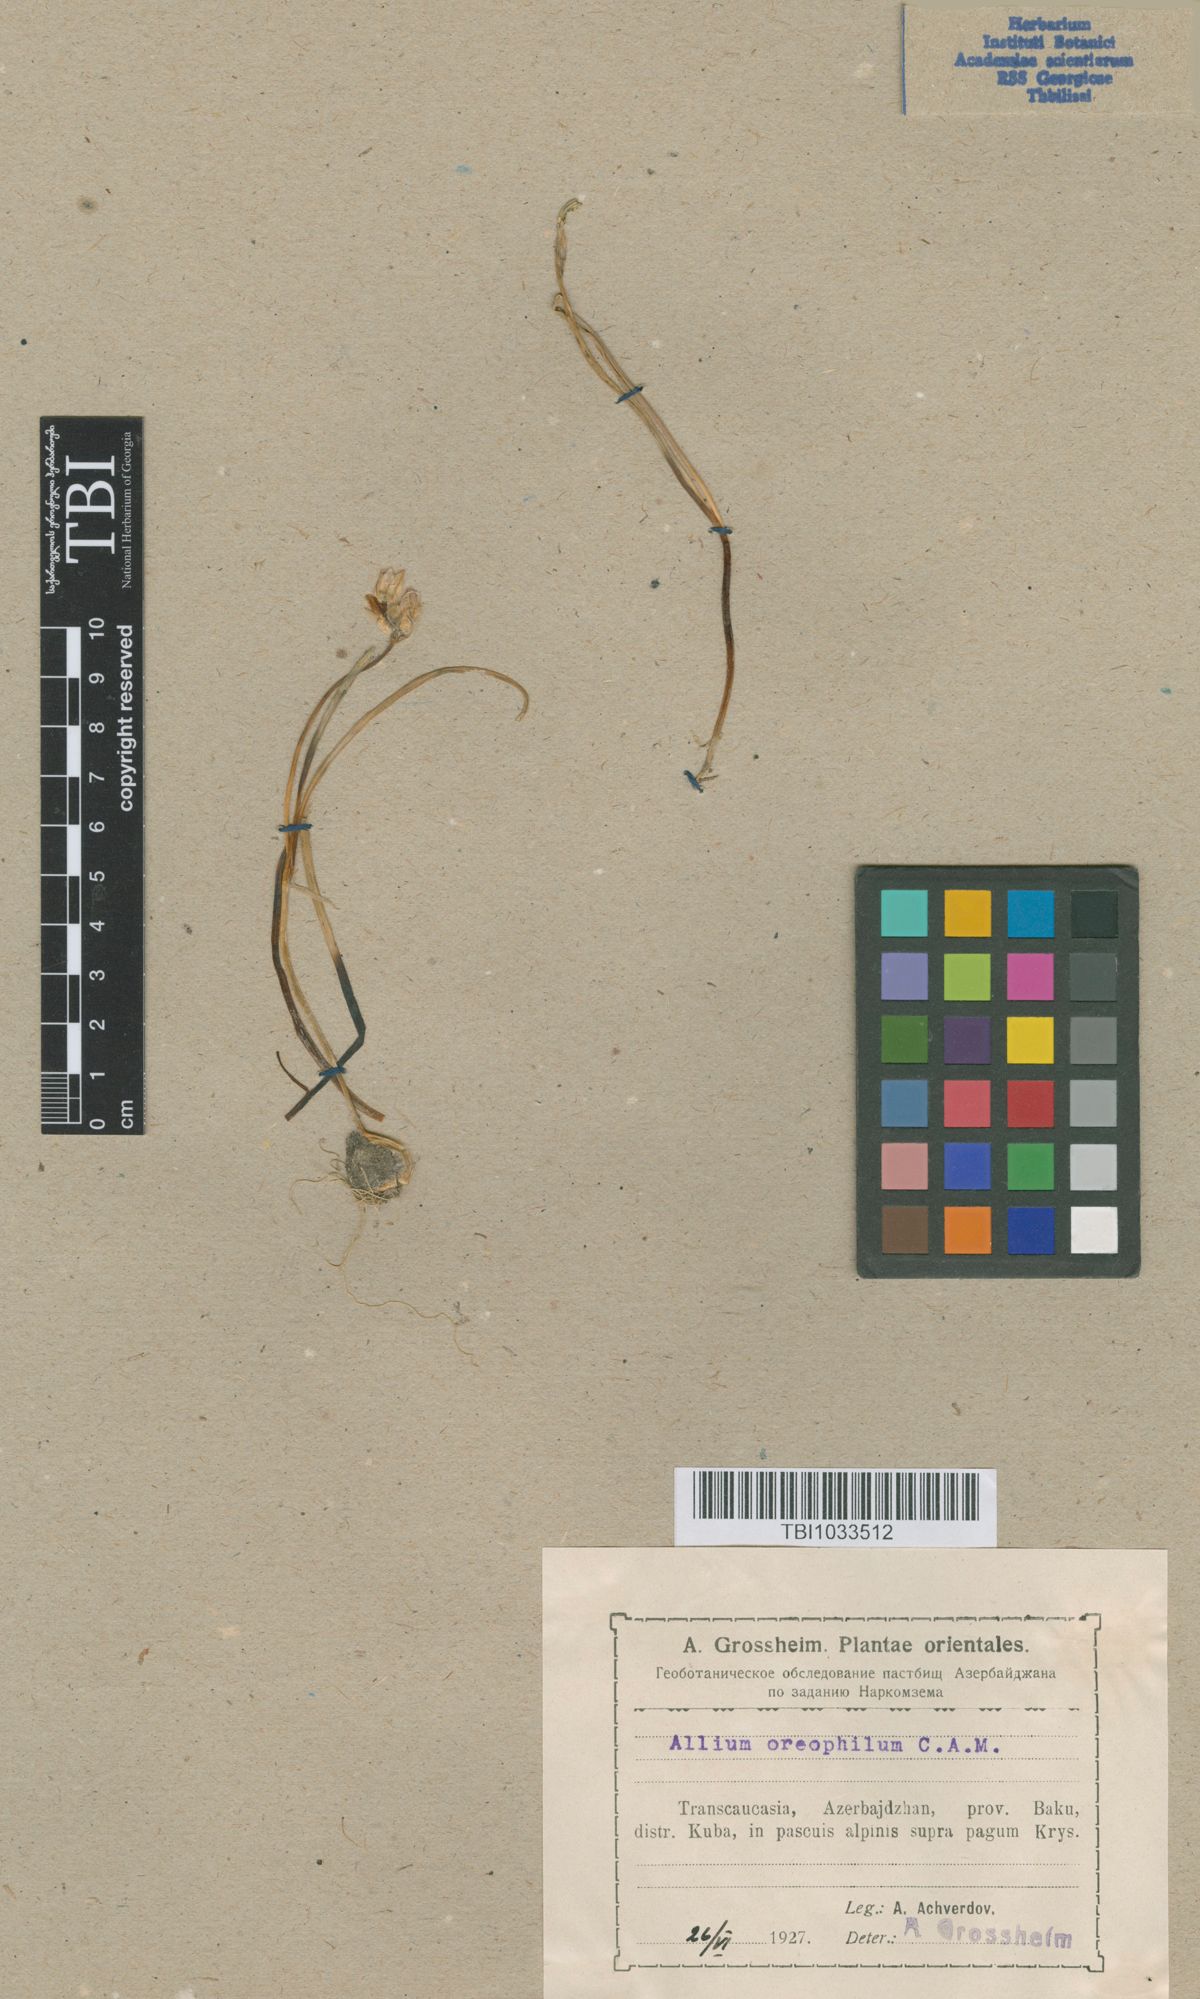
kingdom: Plantae
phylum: Tracheophyta
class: Liliopsida
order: Asparagales
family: Amaryllidaceae
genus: Allium
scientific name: Allium oreophilum
